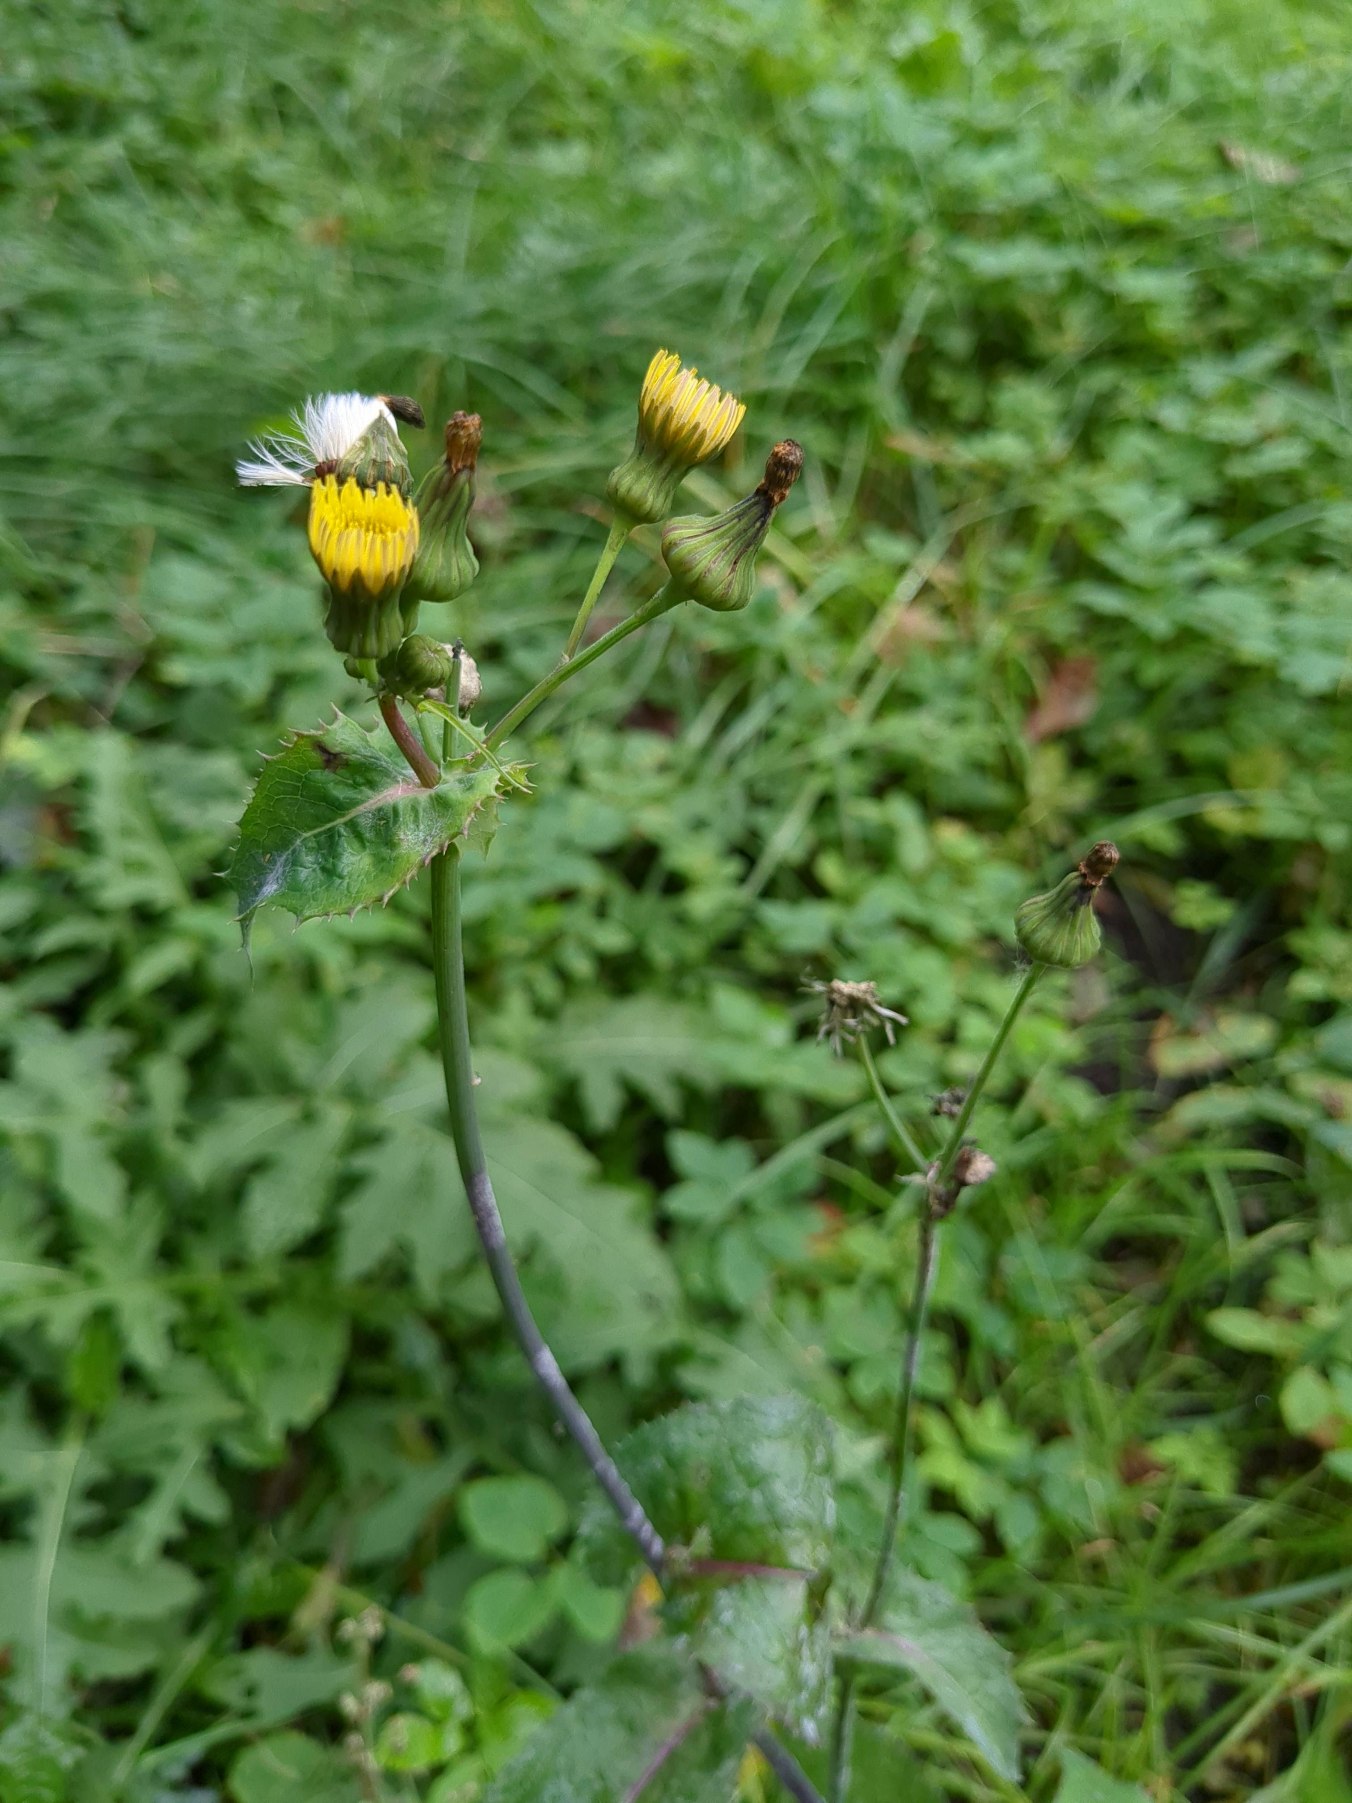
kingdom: Plantae
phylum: Tracheophyta
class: Magnoliopsida
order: Asterales
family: Asteraceae
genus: Sonchus
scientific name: Sonchus oleraceus
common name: Almindelig svinemælk
